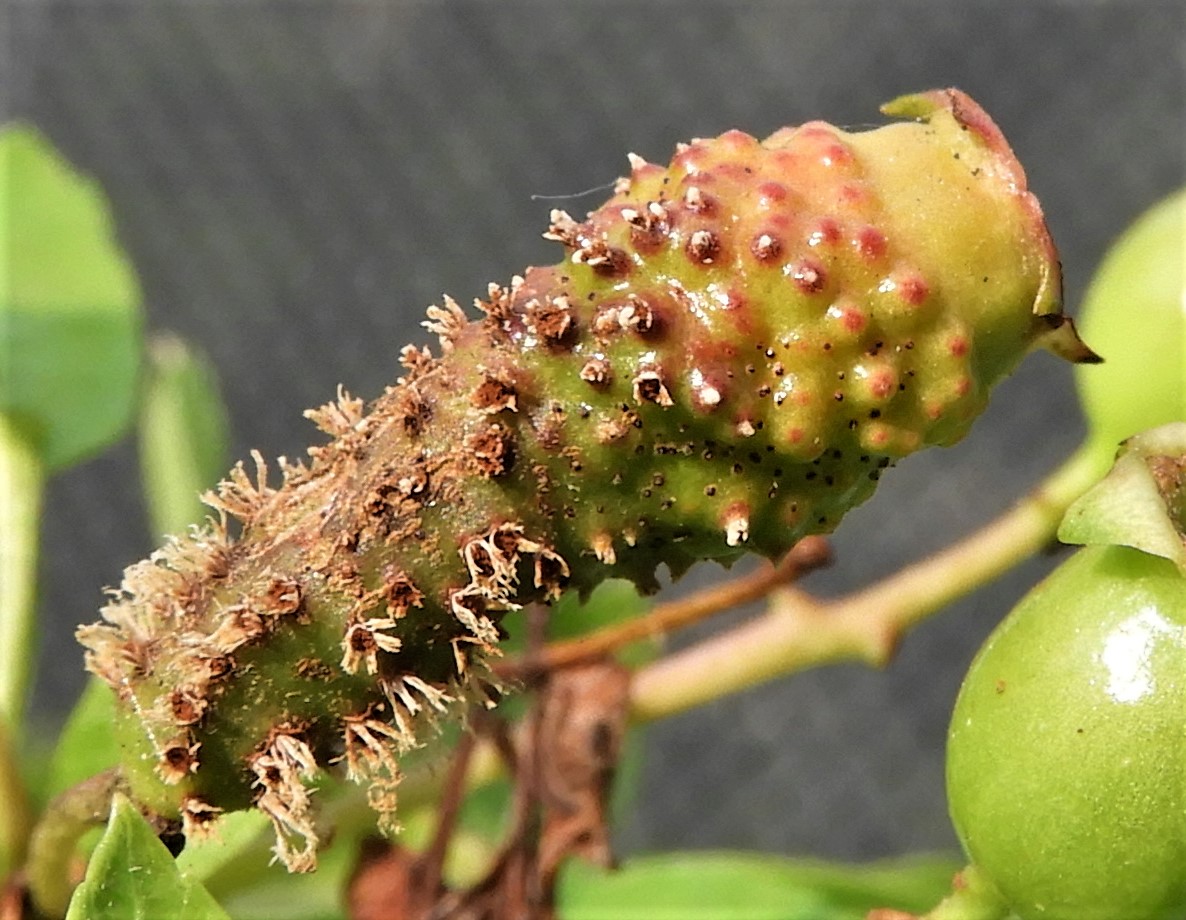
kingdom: Fungi
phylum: Basidiomycota
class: Pucciniomycetes
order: Pucciniales
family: Gymnosporangiaceae
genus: Gymnosporangium
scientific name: Gymnosporangium
